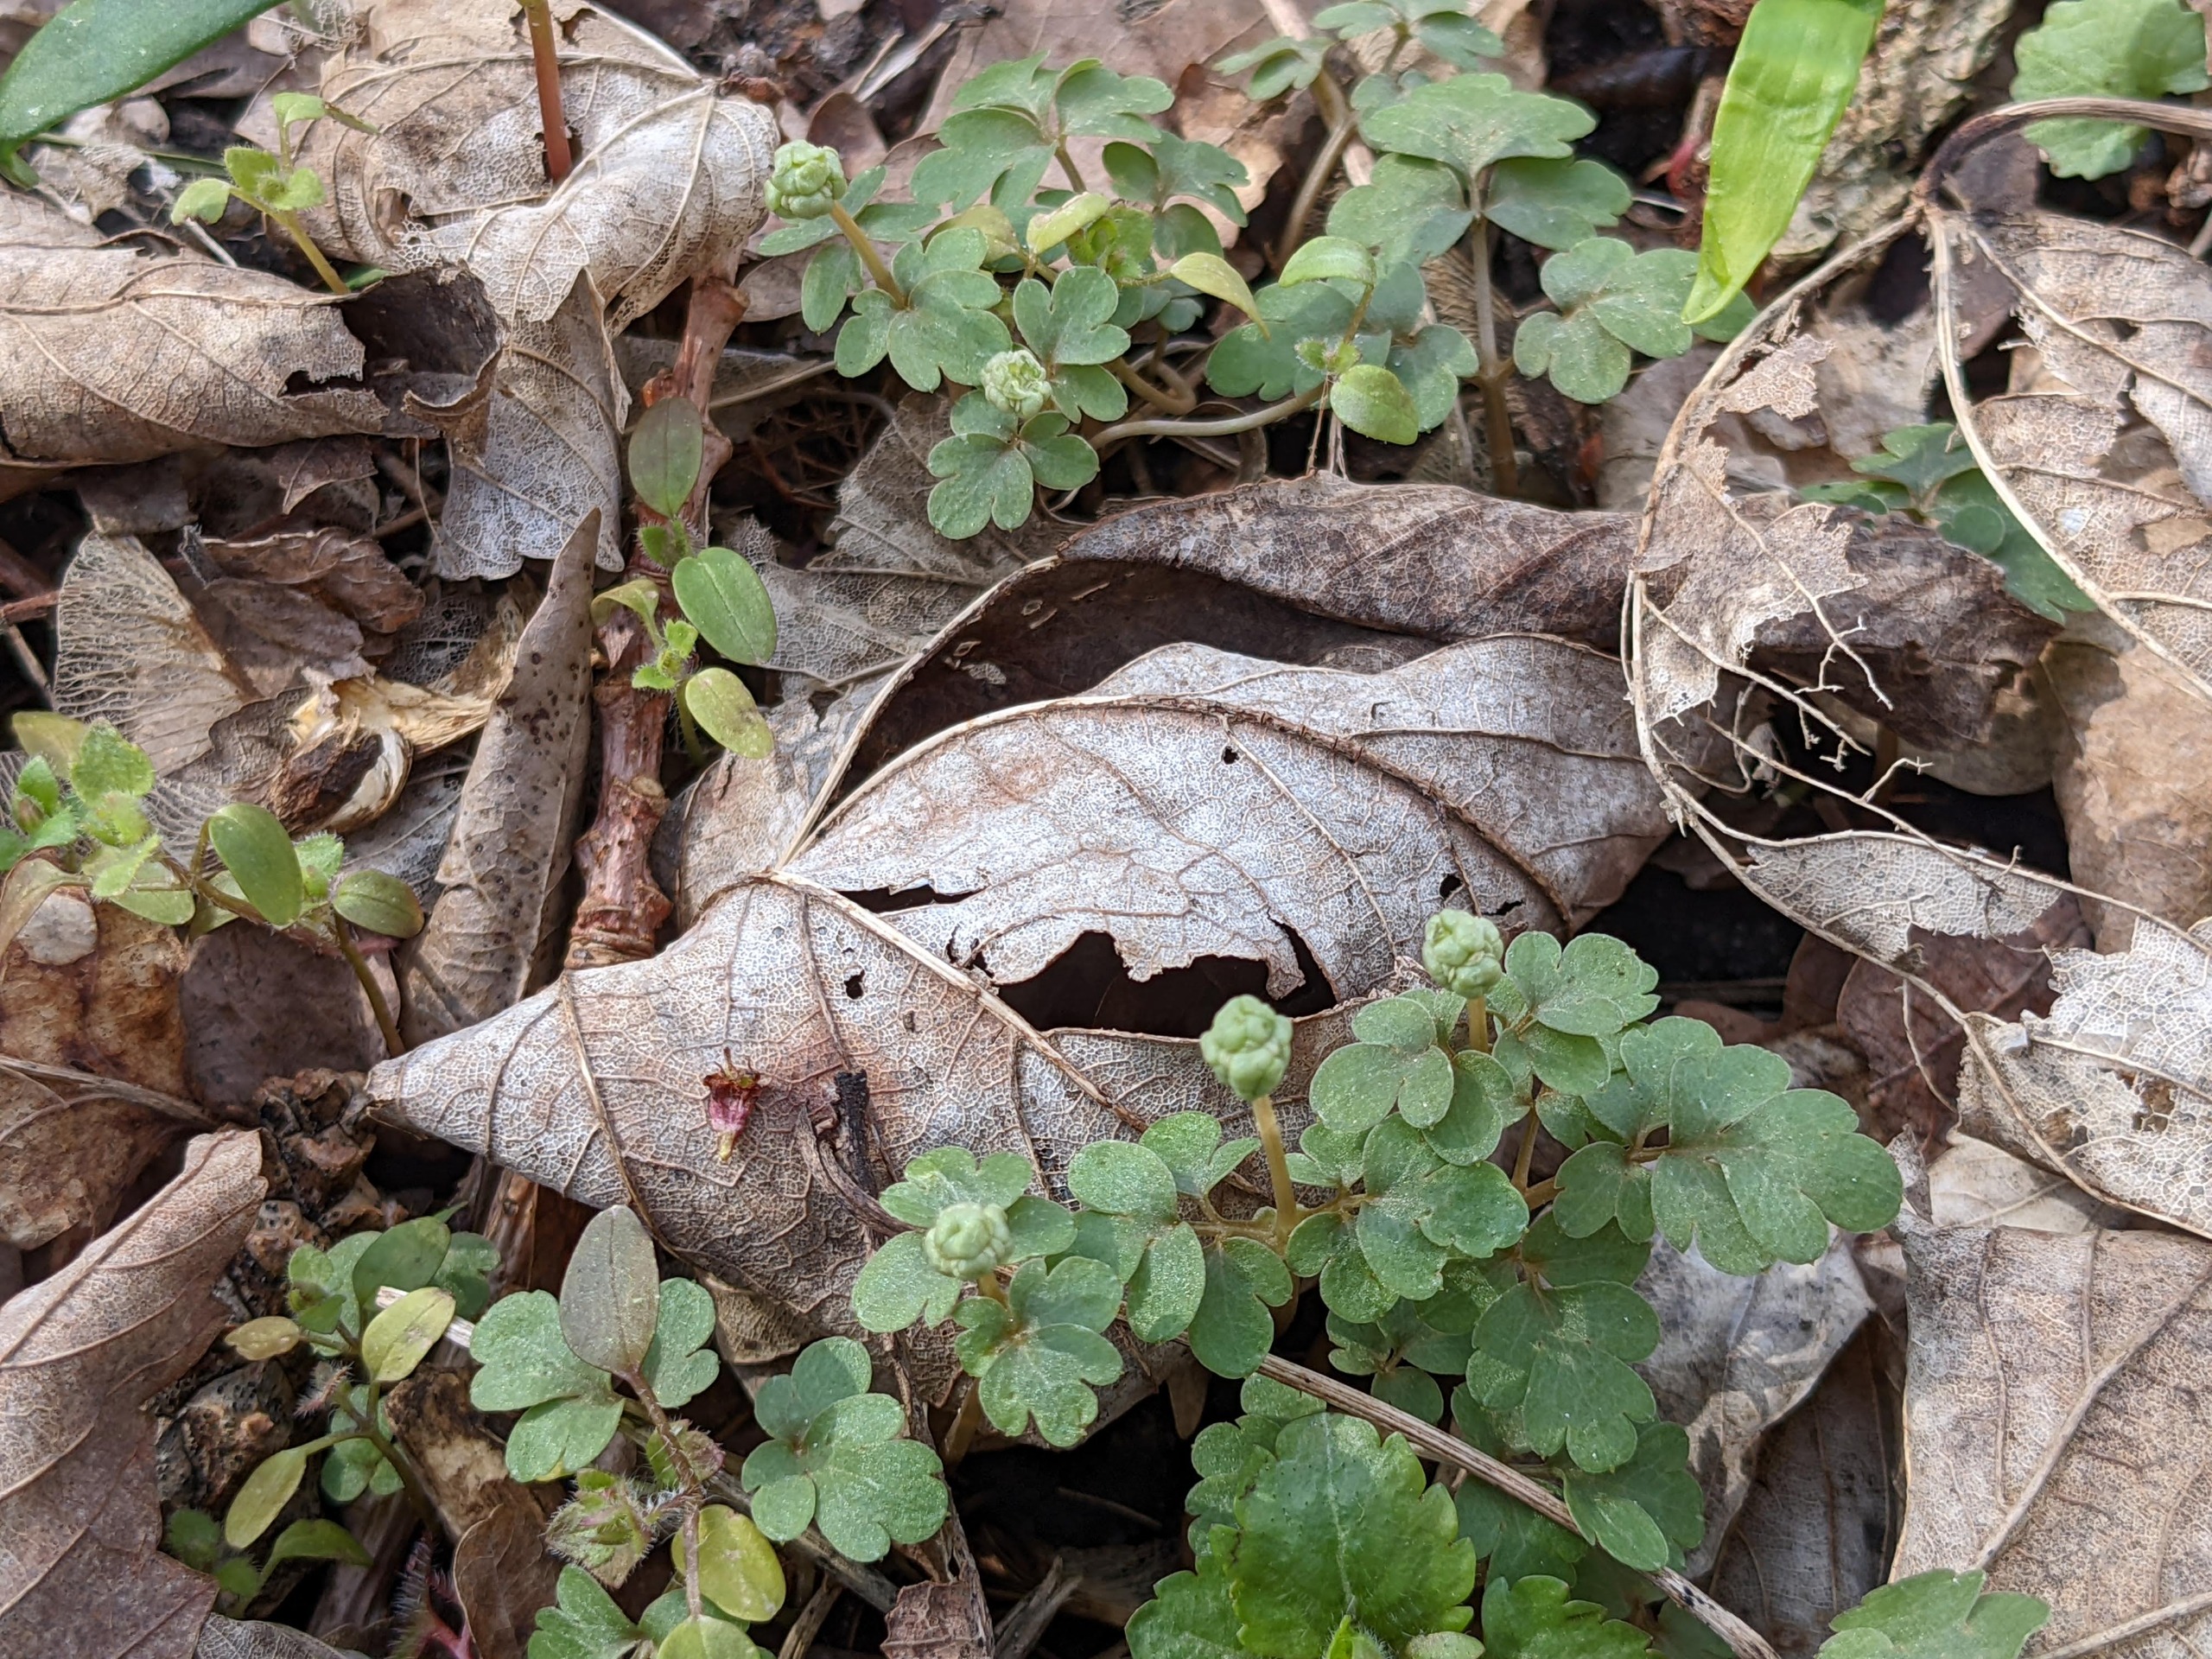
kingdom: Plantae
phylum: Tracheophyta
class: Magnoliopsida
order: Dipsacales
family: Viburnaceae
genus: Adoxa
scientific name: Adoxa moschatellina
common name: Desmerurt
